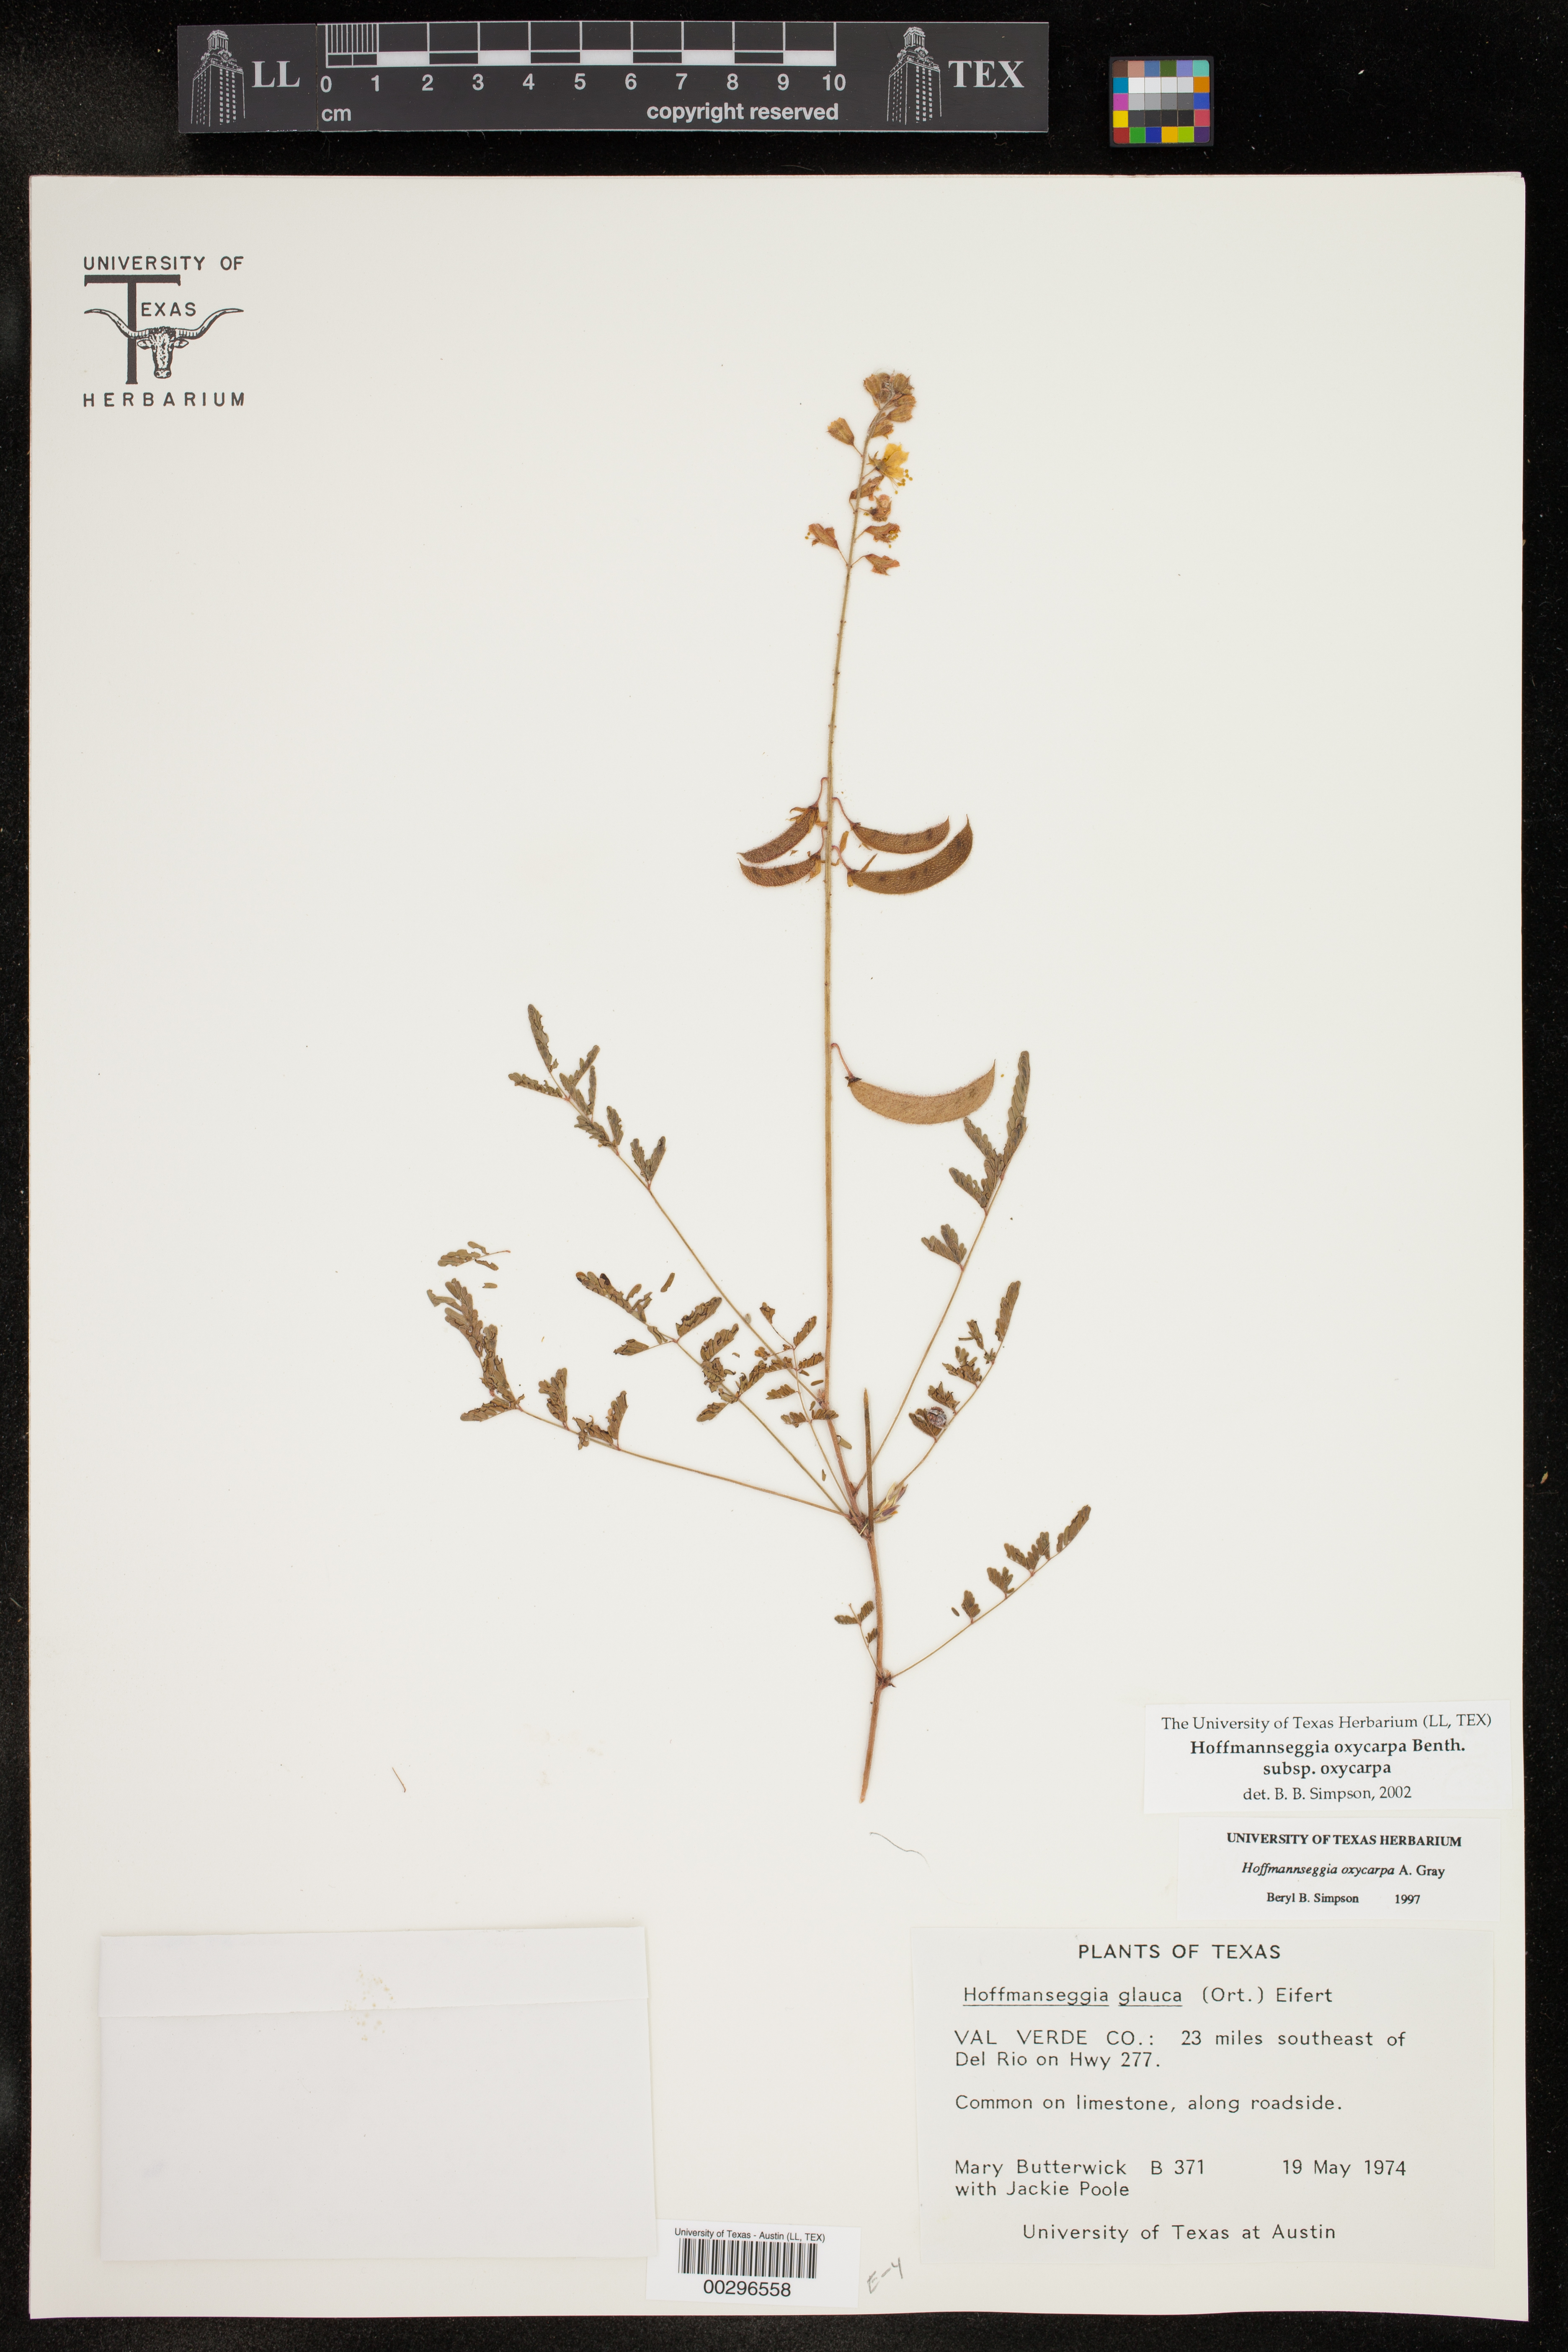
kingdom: Plantae
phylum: Tracheophyta
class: Magnoliopsida
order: Fabales
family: Fabaceae
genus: Hoffmannseggia
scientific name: Hoffmannseggia oxycarpa
